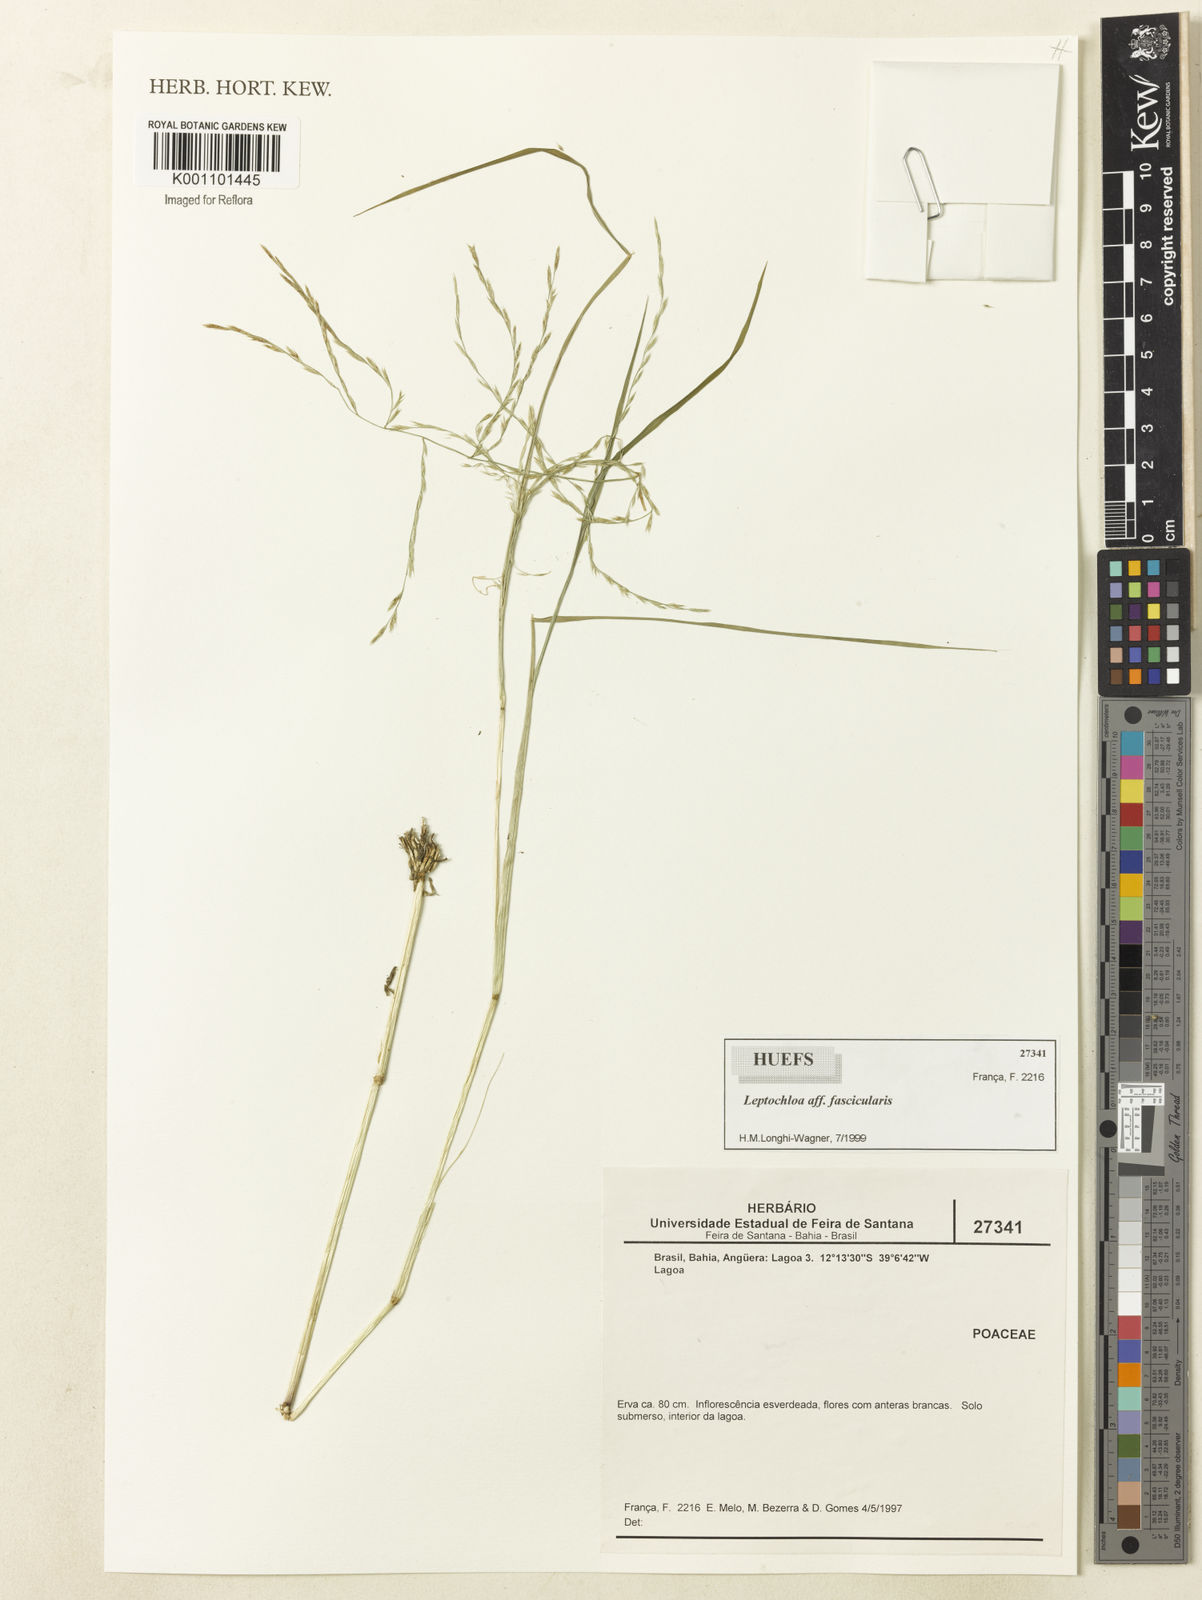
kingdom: Plantae
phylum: Tracheophyta
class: Liliopsida
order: Poales
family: Poaceae
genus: Diplachne
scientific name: Diplachne fusca
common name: Brown beetle grass
